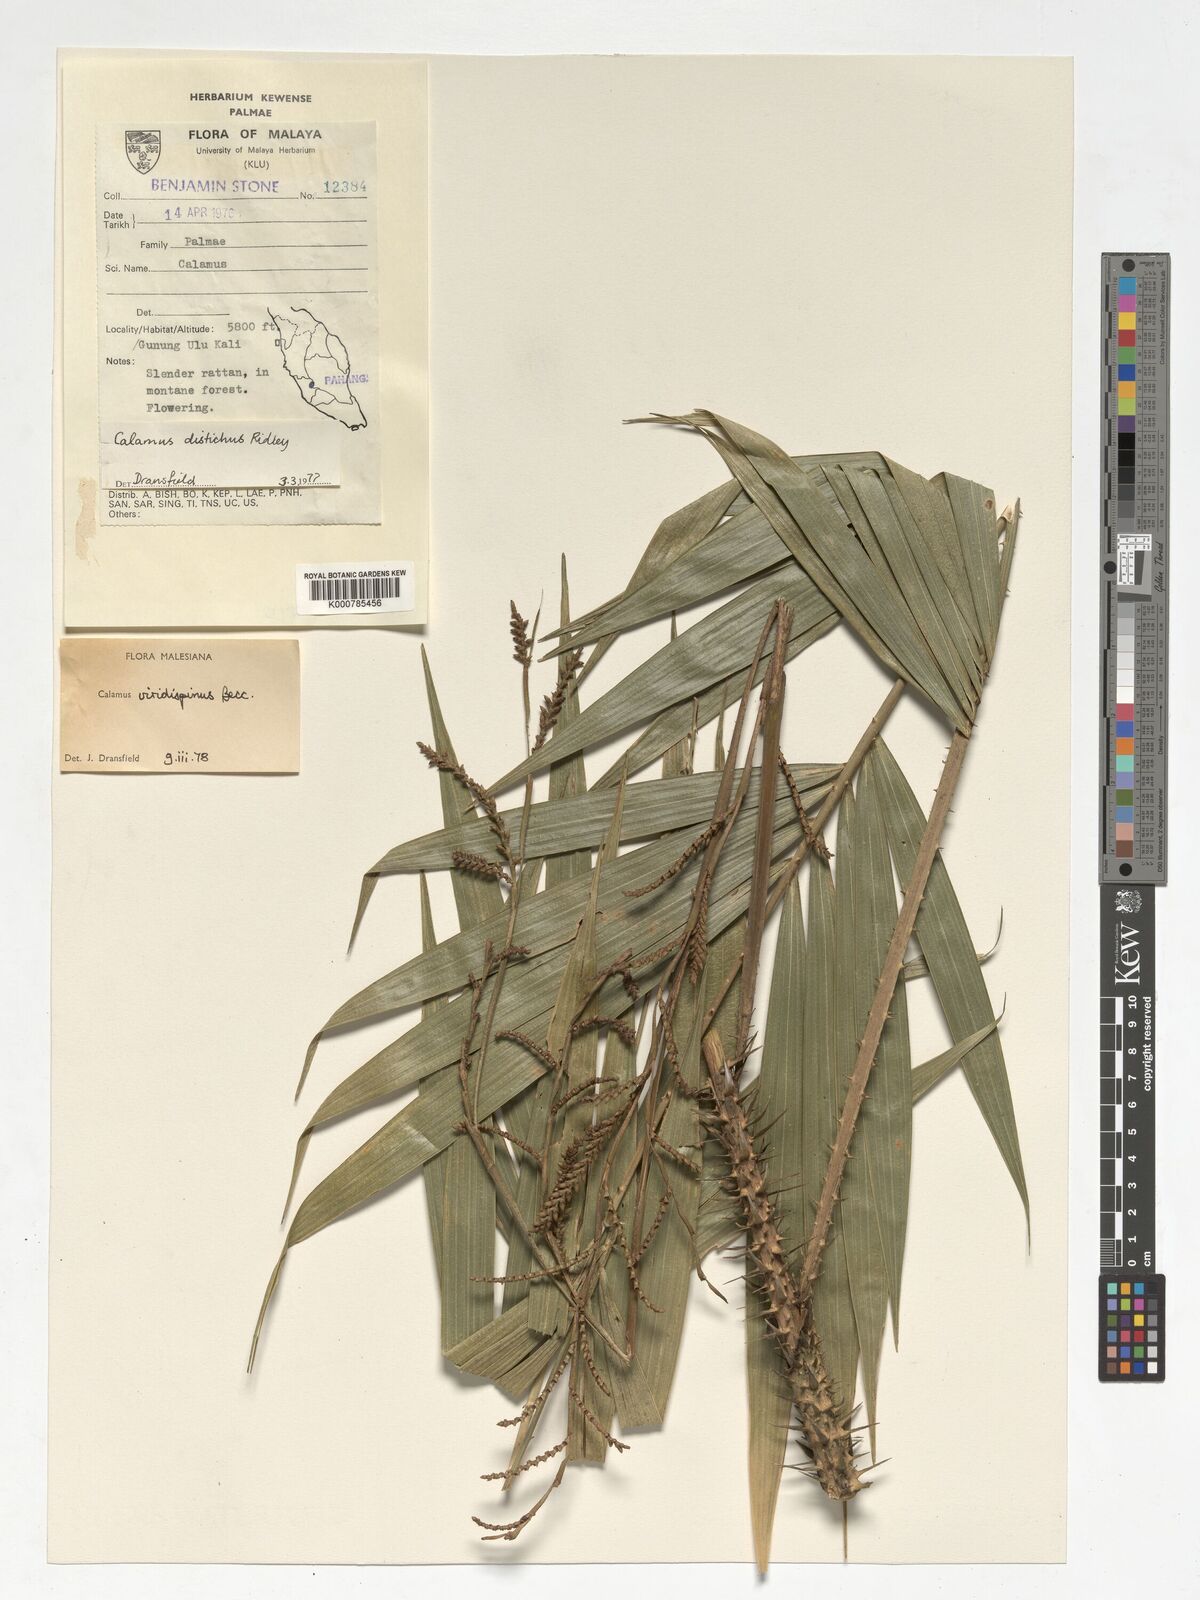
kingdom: Plantae
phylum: Tracheophyta
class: Liliopsida
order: Arecales
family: Arecaceae
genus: Calamus
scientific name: Calamus helferianus
